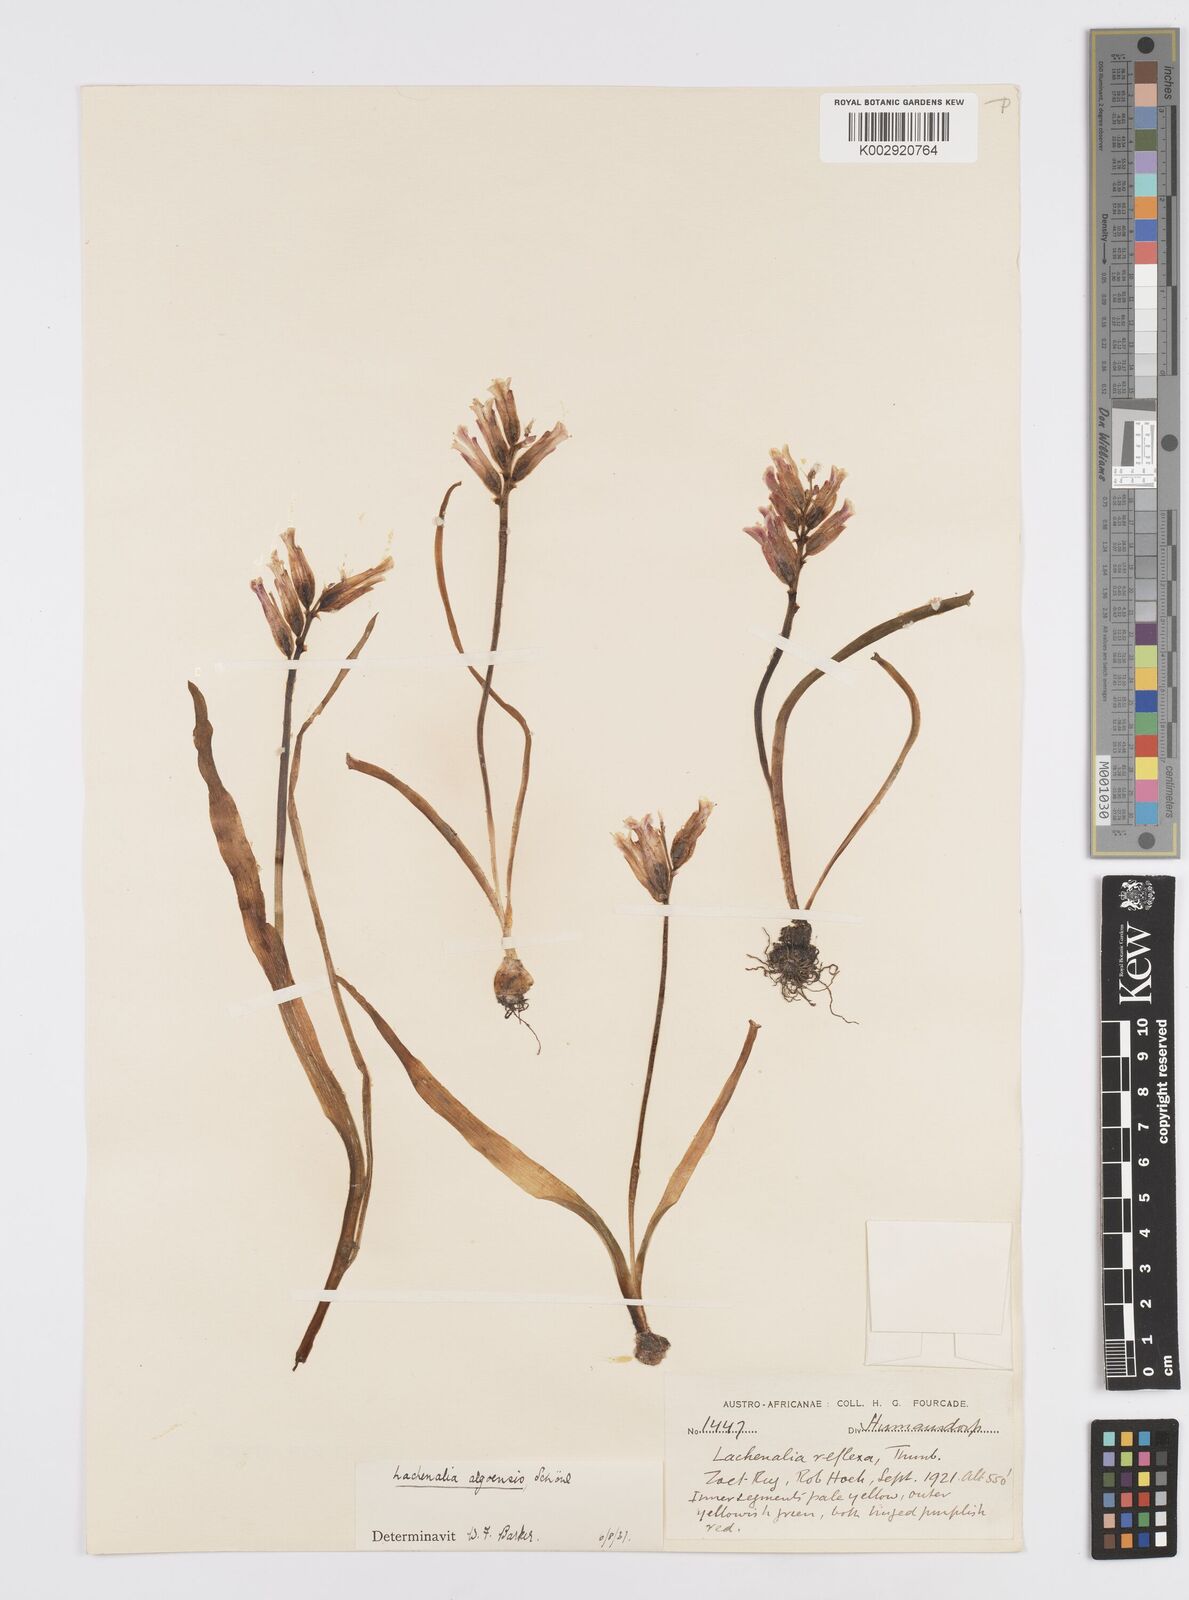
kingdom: Plantae
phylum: Tracheophyta
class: Liliopsida
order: Asparagales
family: Asparagaceae
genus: Lachenalia
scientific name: Lachenalia algoensis
